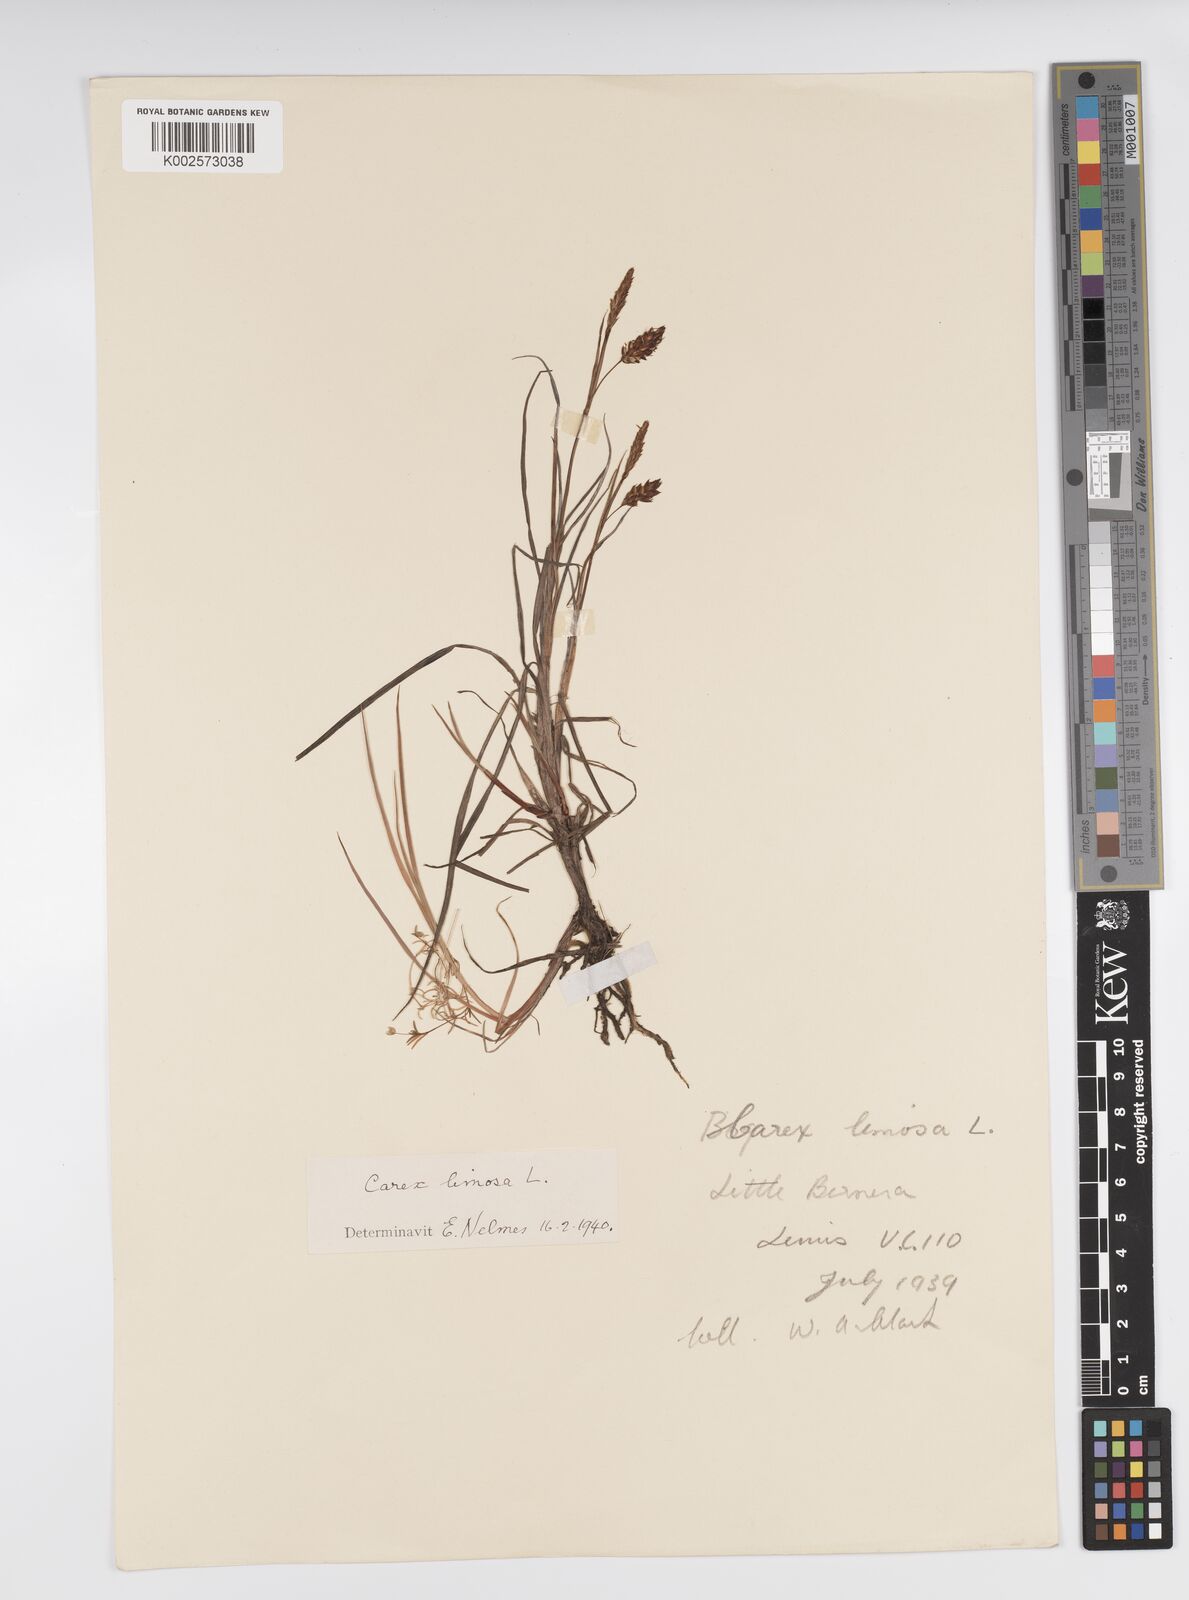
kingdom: Plantae
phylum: Tracheophyta
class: Liliopsida
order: Poales
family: Cyperaceae
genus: Carex
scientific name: Carex limosa
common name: Bog sedge
